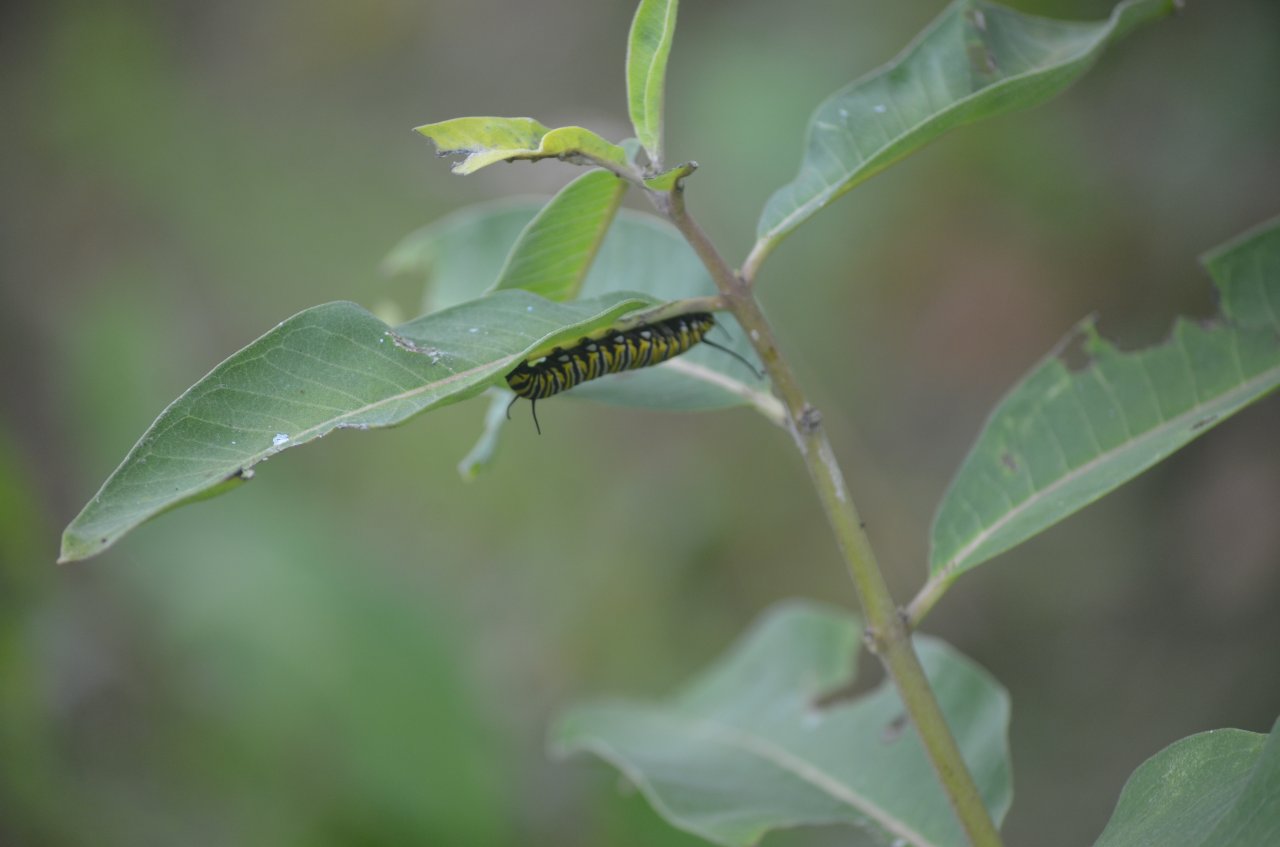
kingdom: Animalia
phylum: Arthropoda
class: Insecta
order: Lepidoptera
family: Nymphalidae
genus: Danaus
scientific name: Danaus plexippus
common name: Monarch
